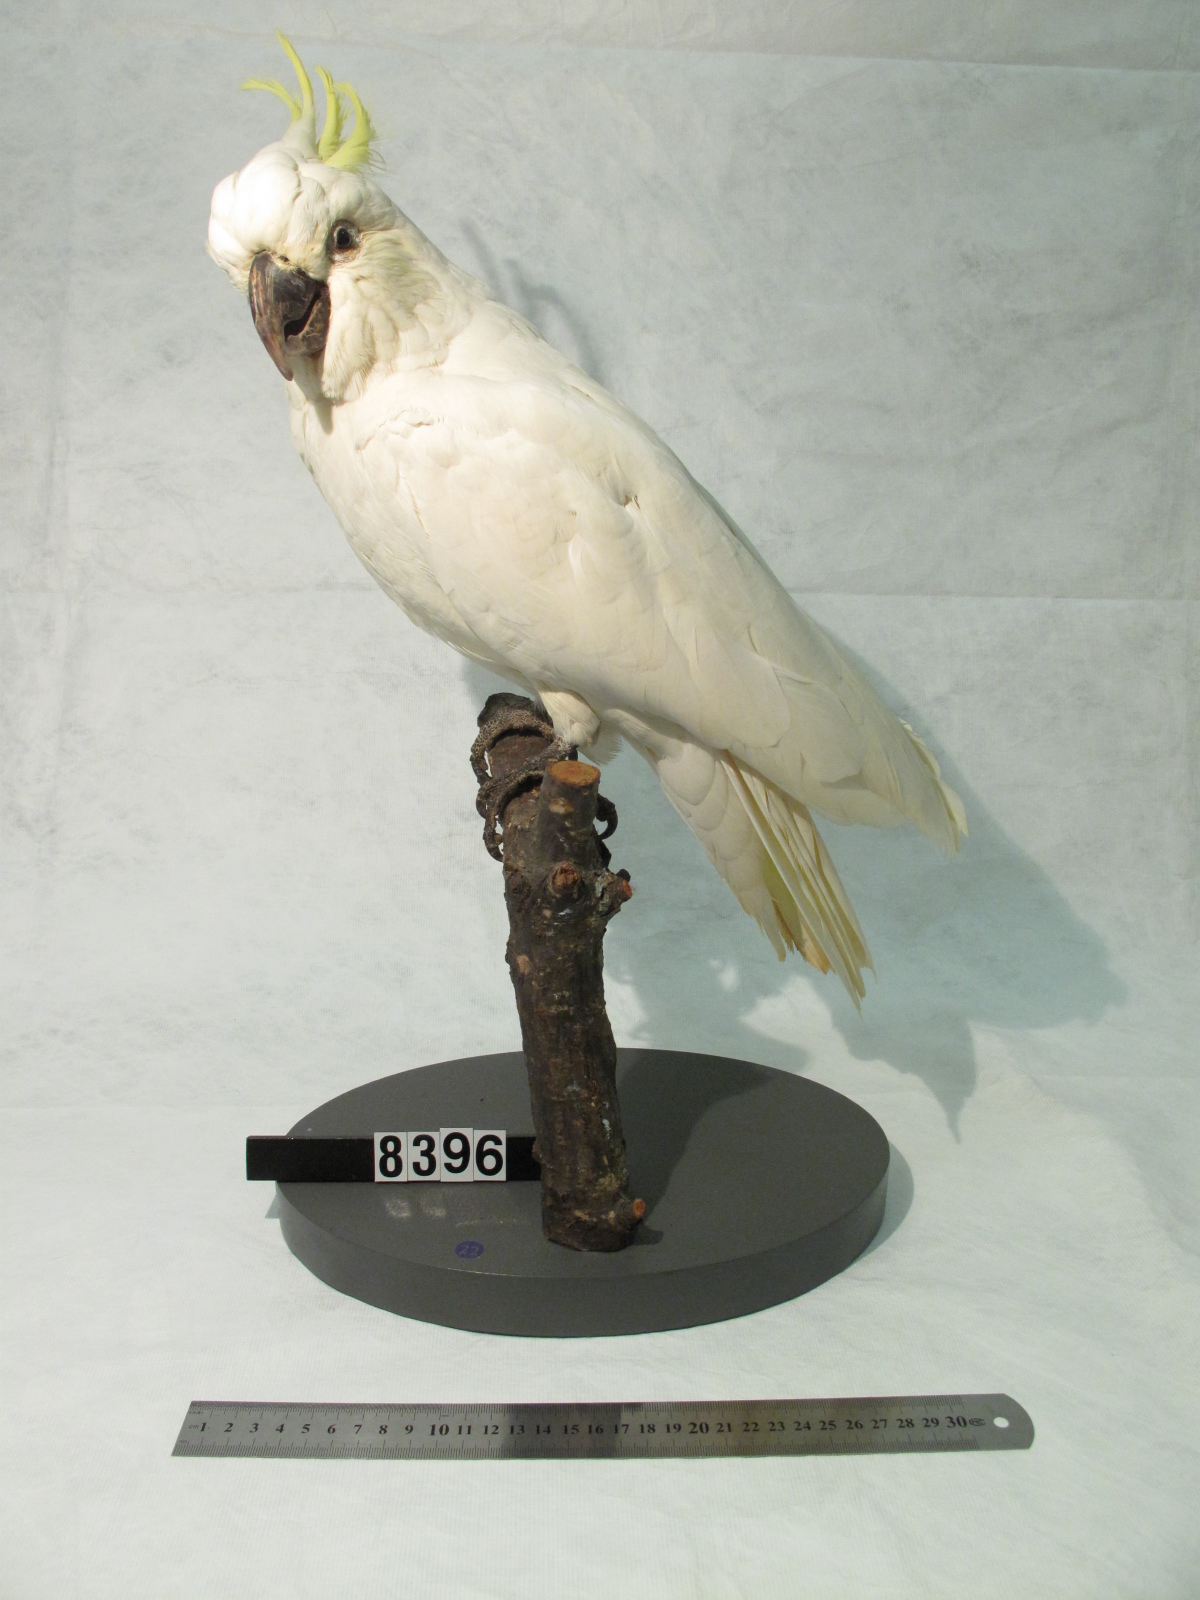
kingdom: Animalia
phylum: Chordata
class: Aves
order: Psittaciformes
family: Psittacidae
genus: Cacatua
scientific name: Cacatua galerita
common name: Sulphur-crested cockatoo
